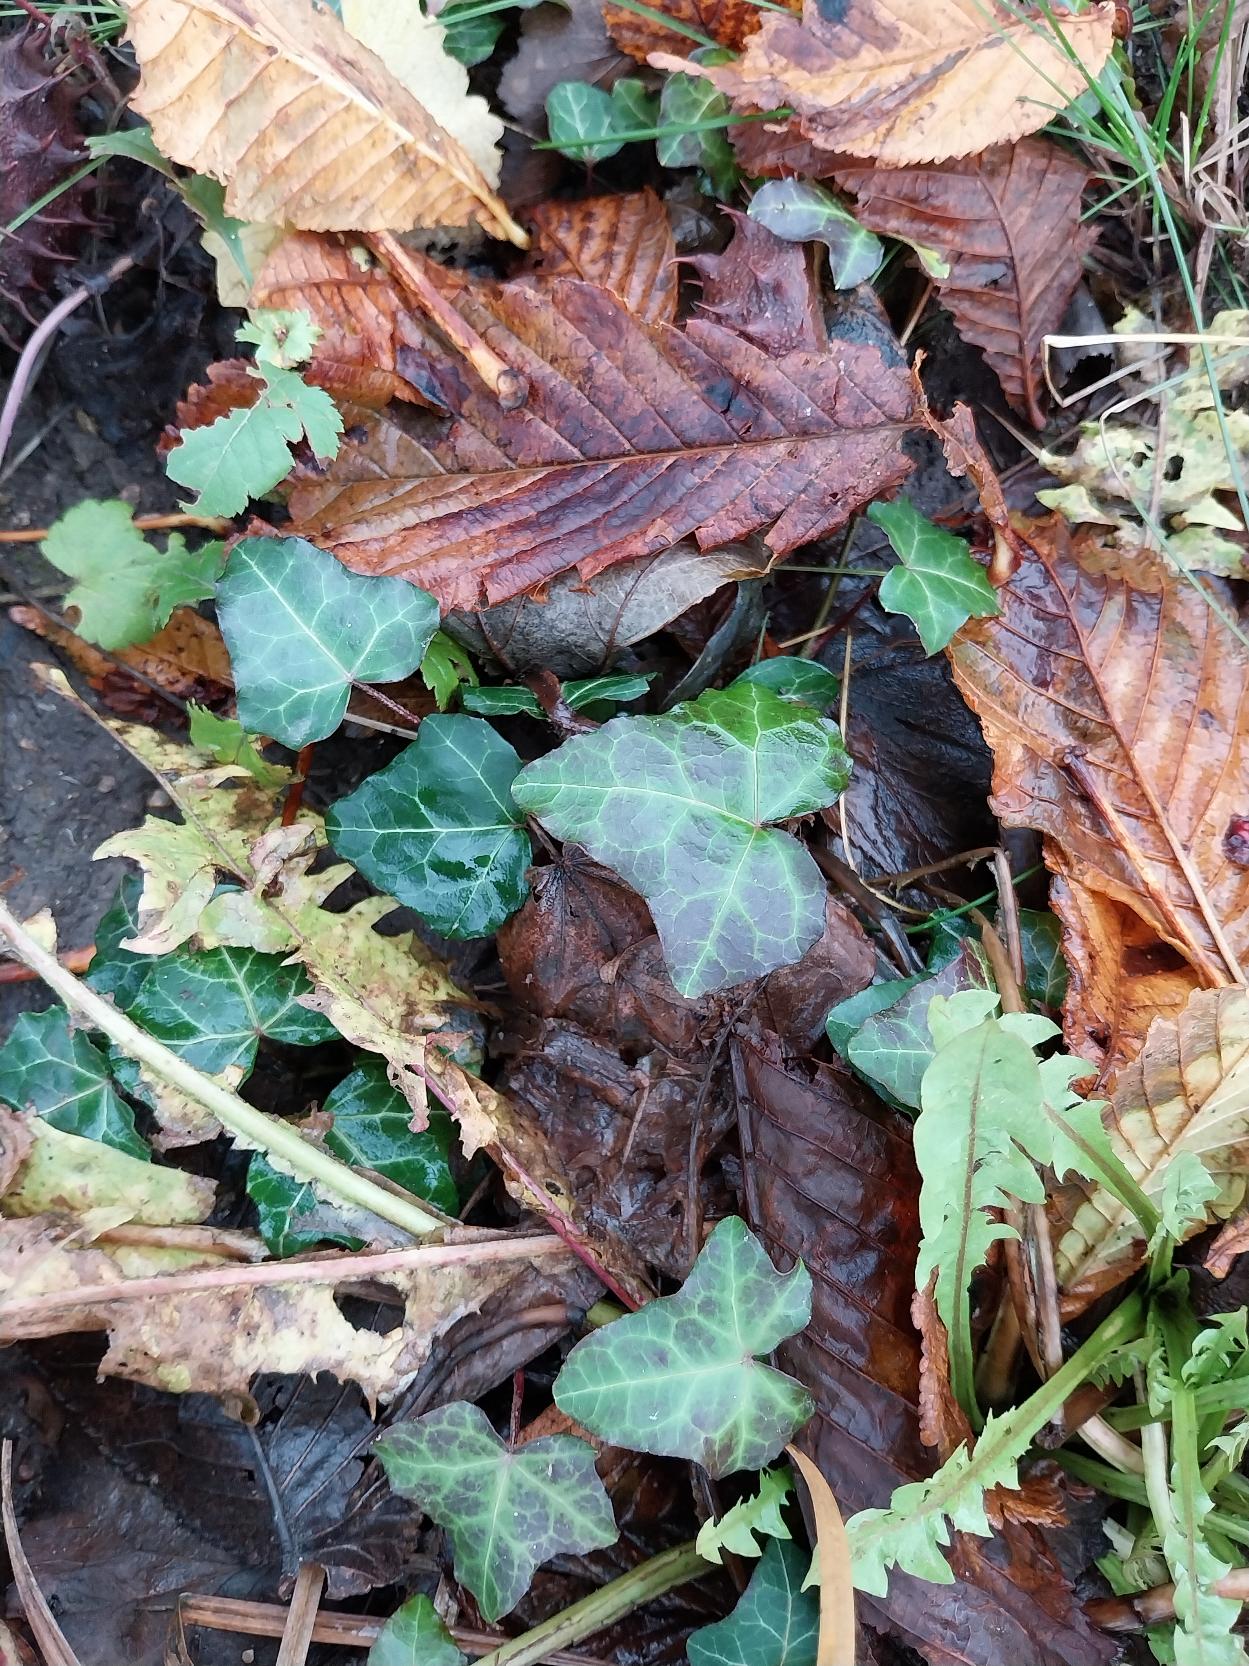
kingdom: Plantae
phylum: Tracheophyta
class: Magnoliopsida
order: Apiales
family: Araliaceae
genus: Hedera
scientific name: Hedera helix
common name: Vedbend
